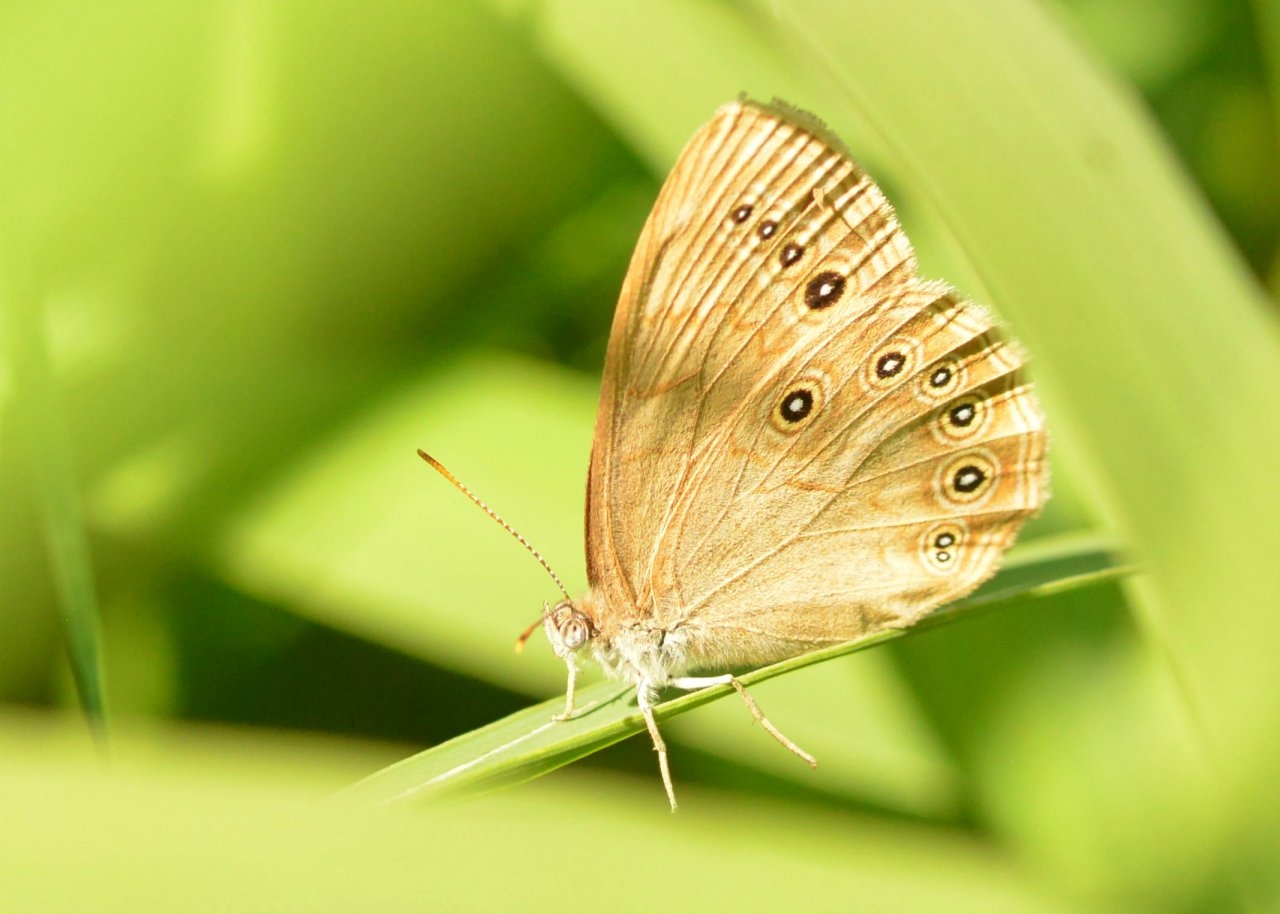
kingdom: Animalia
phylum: Arthropoda
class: Insecta
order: Lepidoptera
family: Nymphalidae
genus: Lethe
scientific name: Lethe eurydice
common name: Eyed Brown
